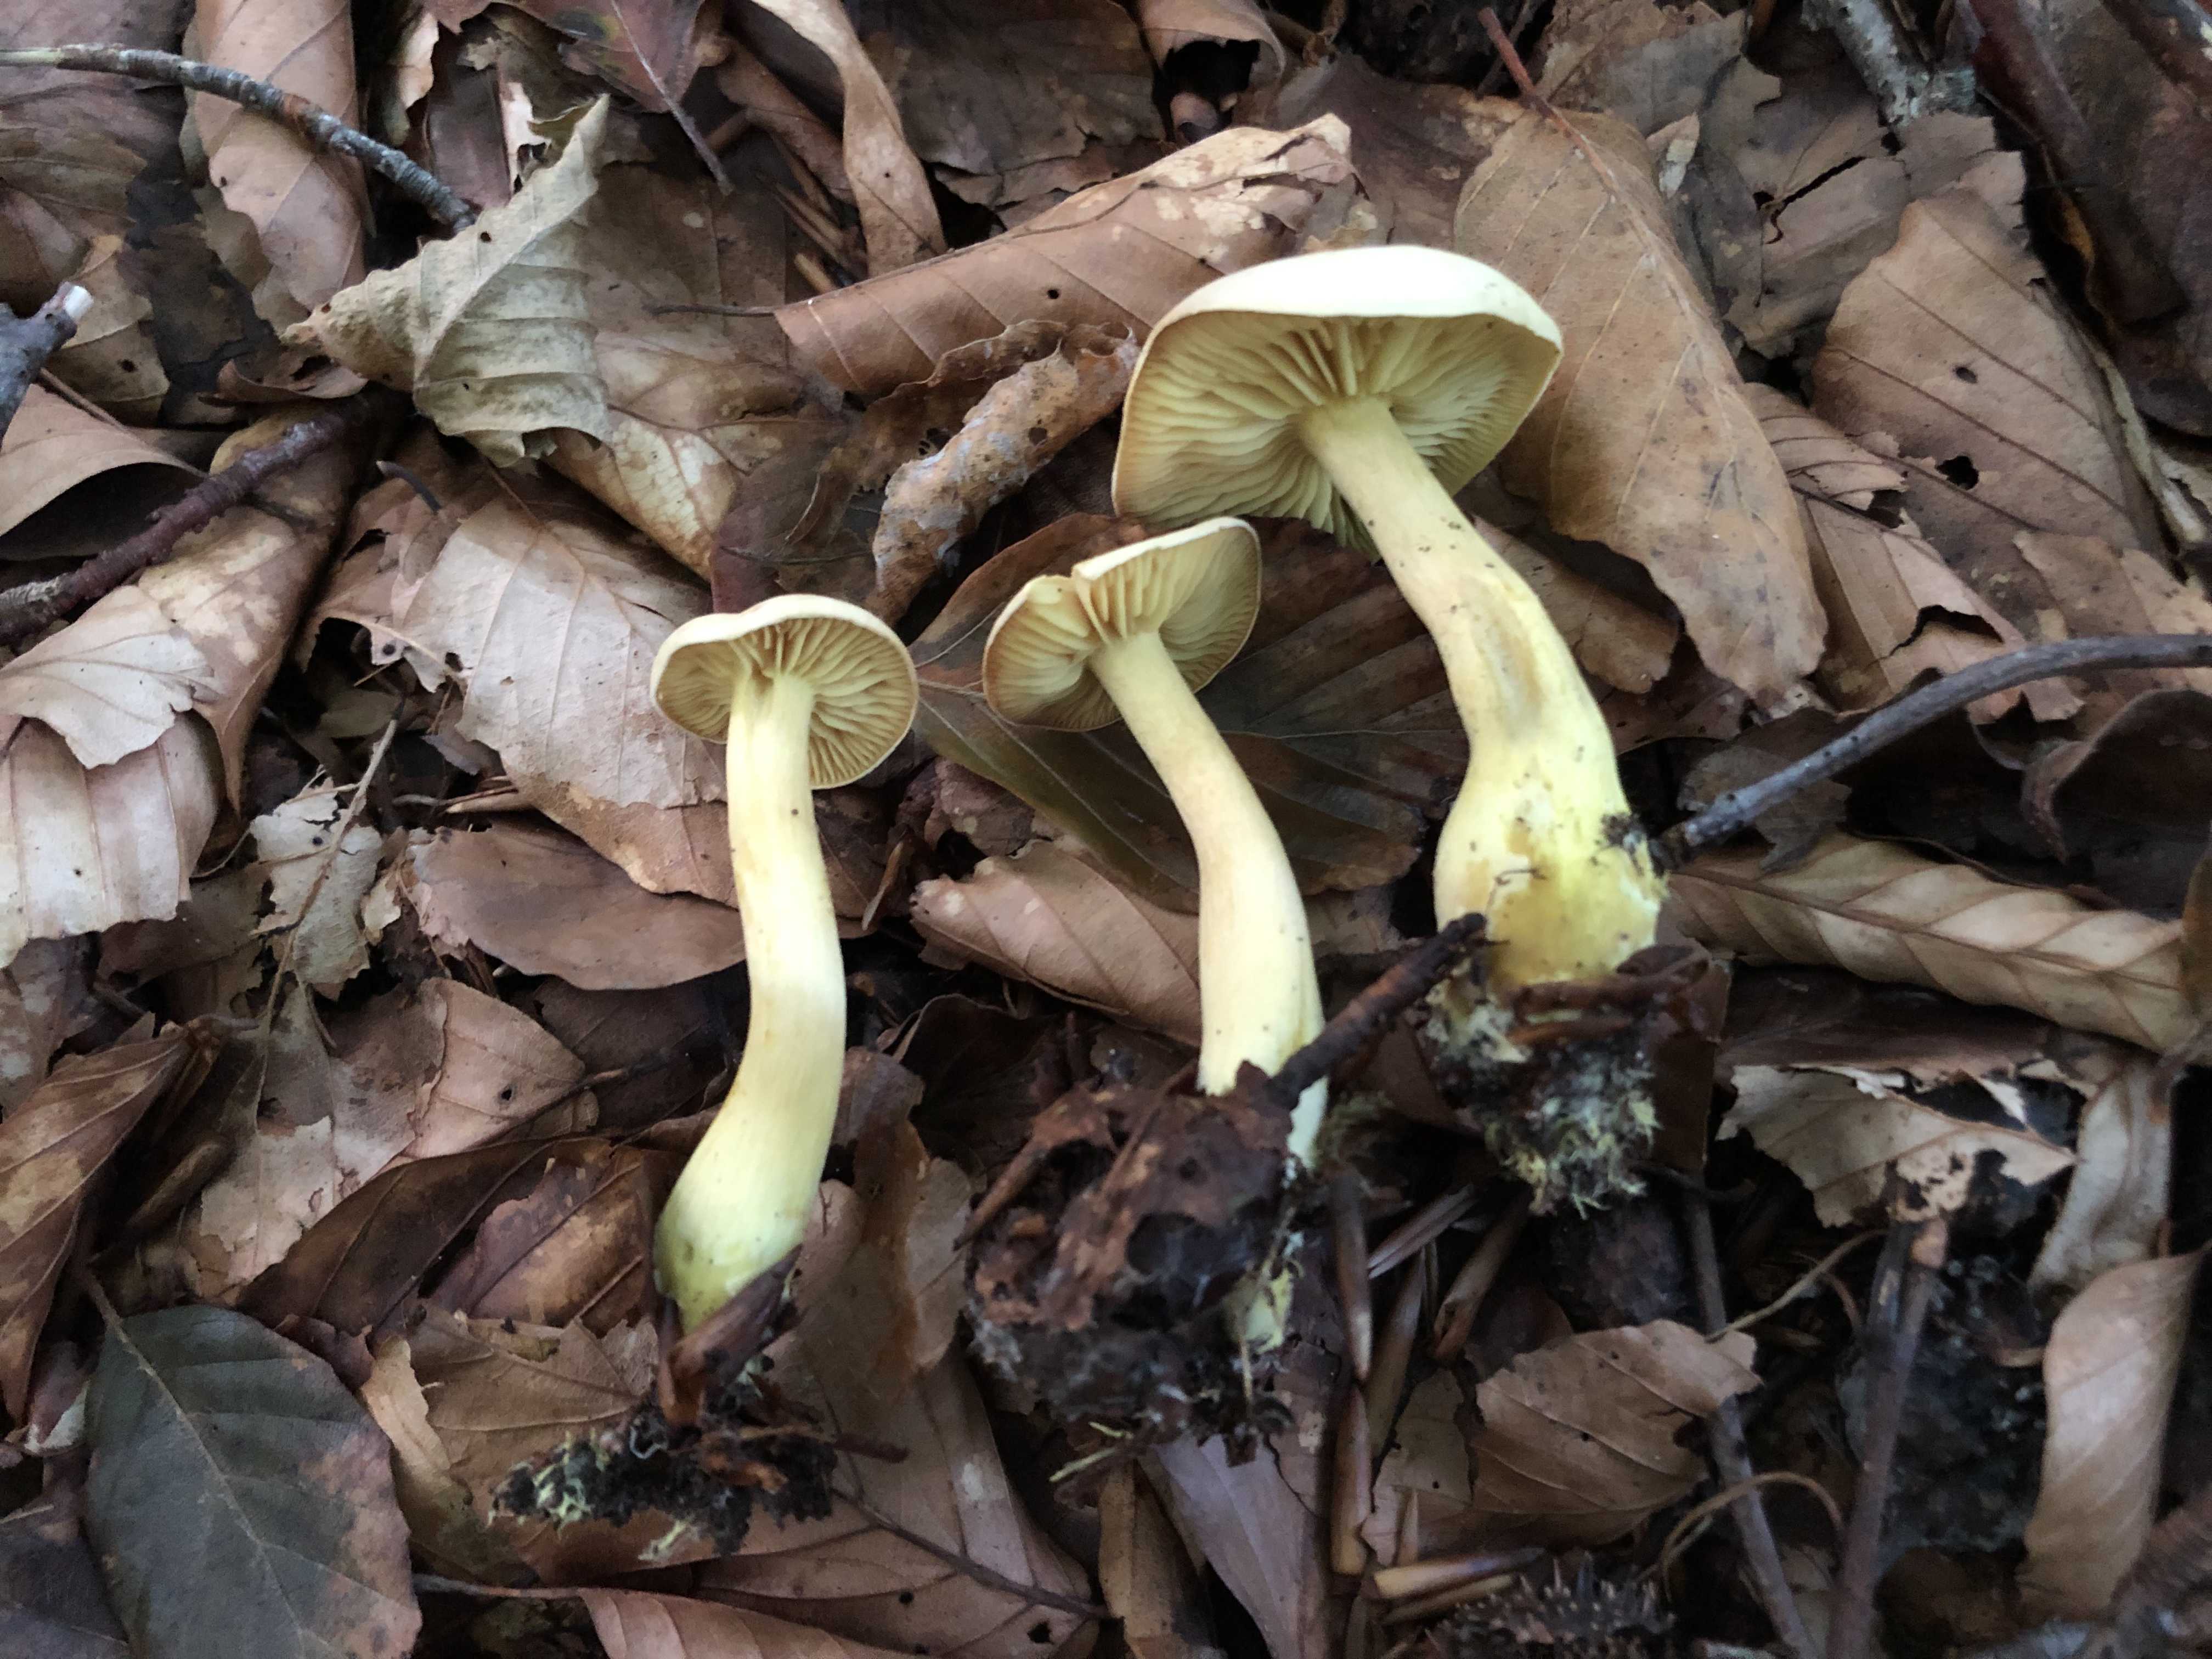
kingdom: Fungi
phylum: Basidiomycota
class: Agaricomycetes
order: Agaricales
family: Tricholomataceae
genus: Tricholoma
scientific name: Tricholoma sulphureum
